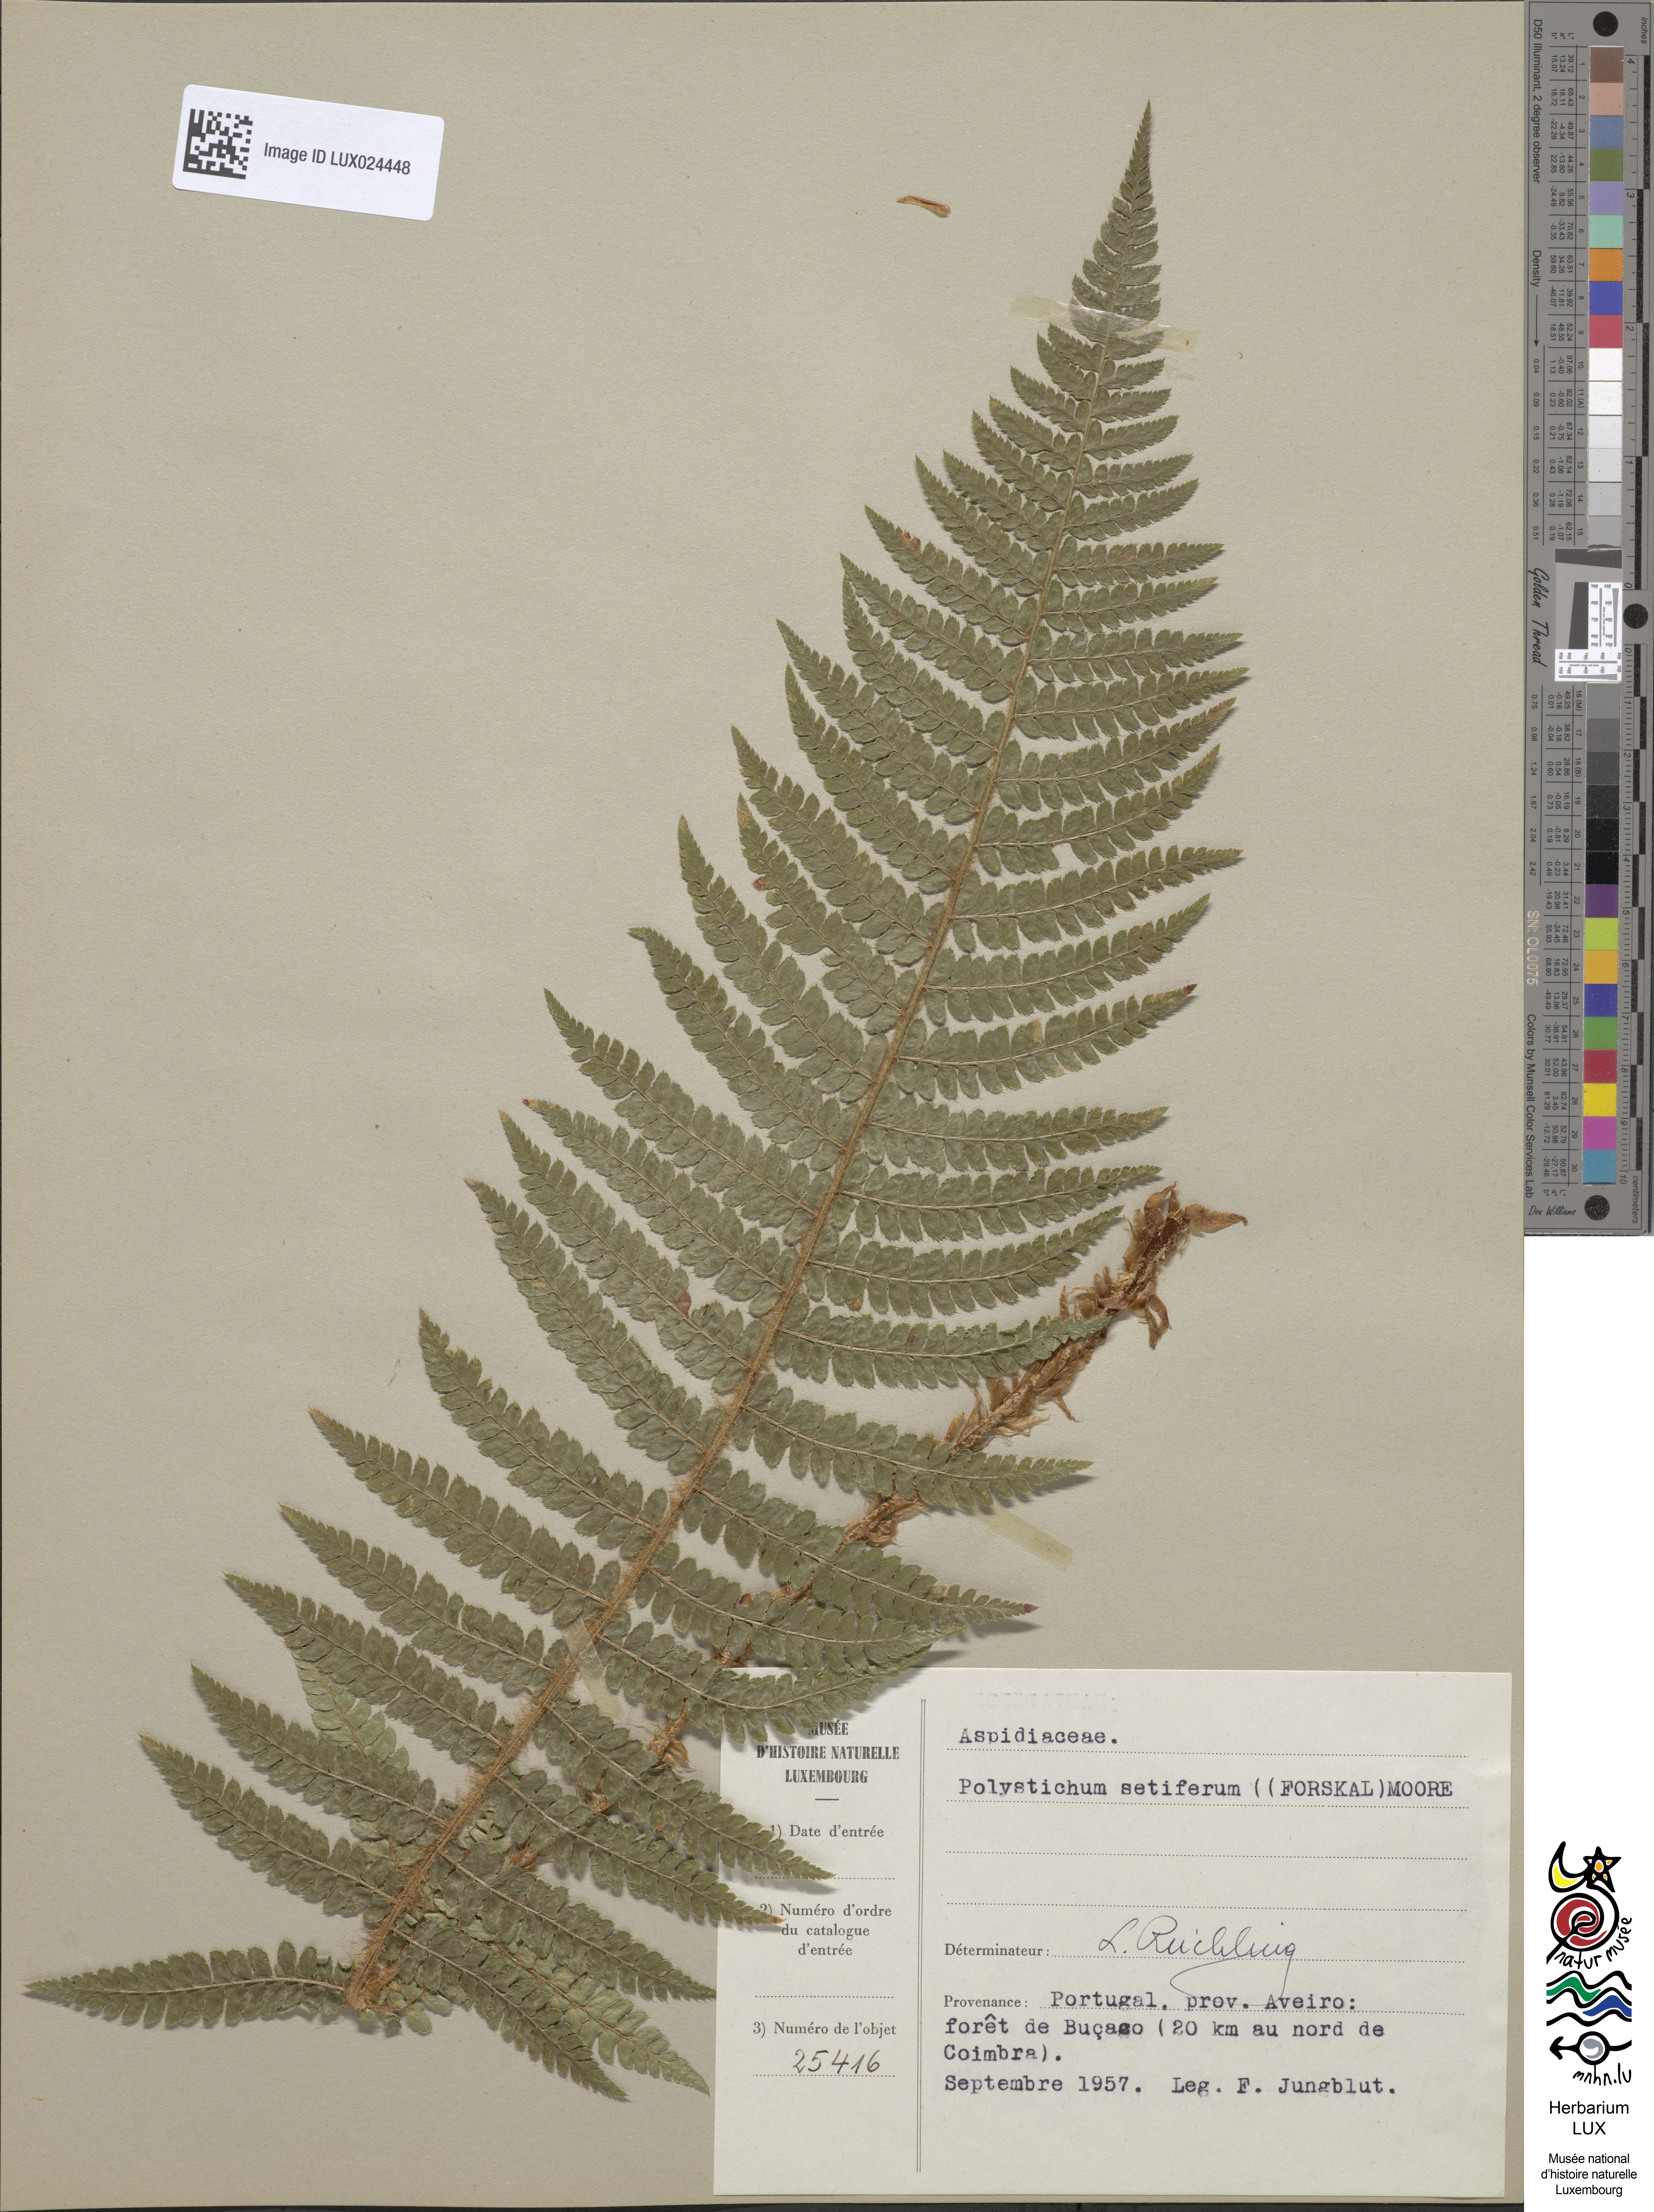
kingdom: Plantae
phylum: Tracheophyta
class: Polypodiopsida
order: Polypodiales
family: Dryopteridaceae
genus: Polystichum
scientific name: Polystichum setiferum
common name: Soft shield-fern
